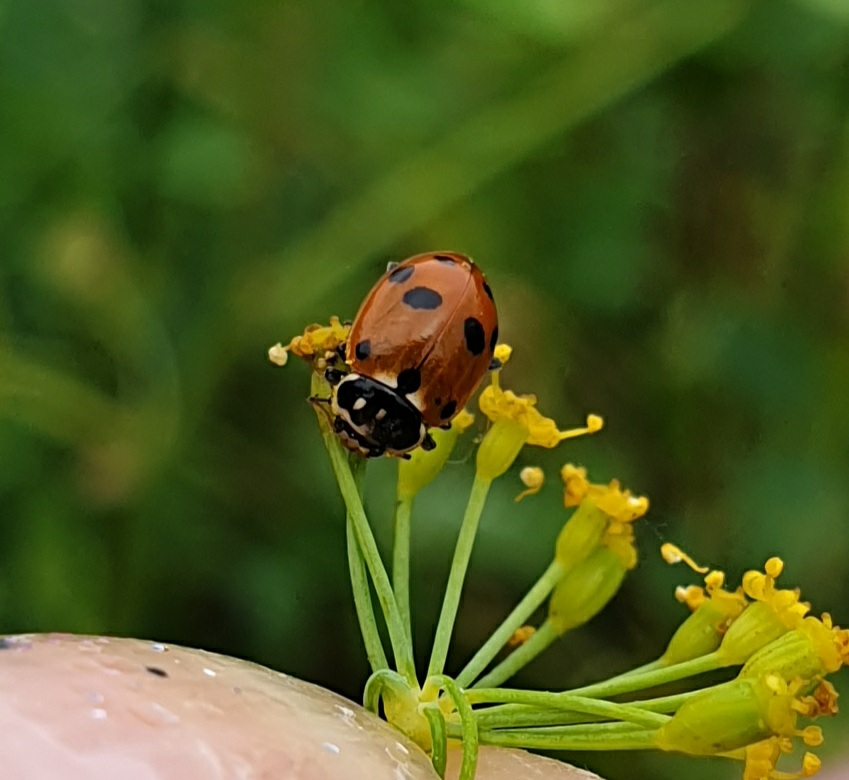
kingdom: Animalia
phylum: Arthropoda
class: Insecta
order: Coleoptera
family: Coccinellidae
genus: Hippodamia
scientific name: Hippodamia variegata
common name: Adonis' mariehøne
